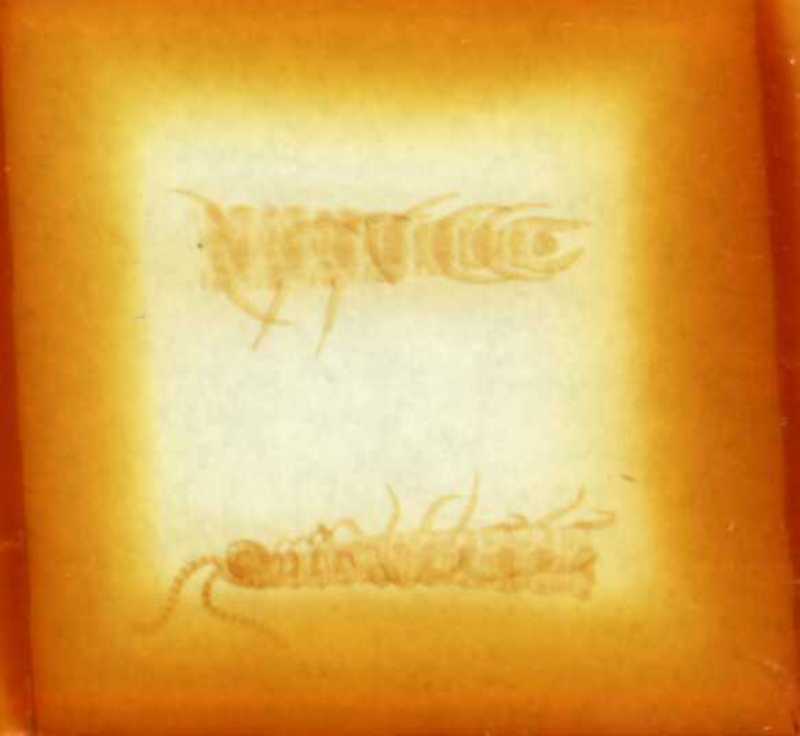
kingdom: Animalia
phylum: Arthropoda
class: Chilopoda
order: Geophilomorpha
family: Linotaeniidae
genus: Strigamia
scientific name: Strigamia acuminata
